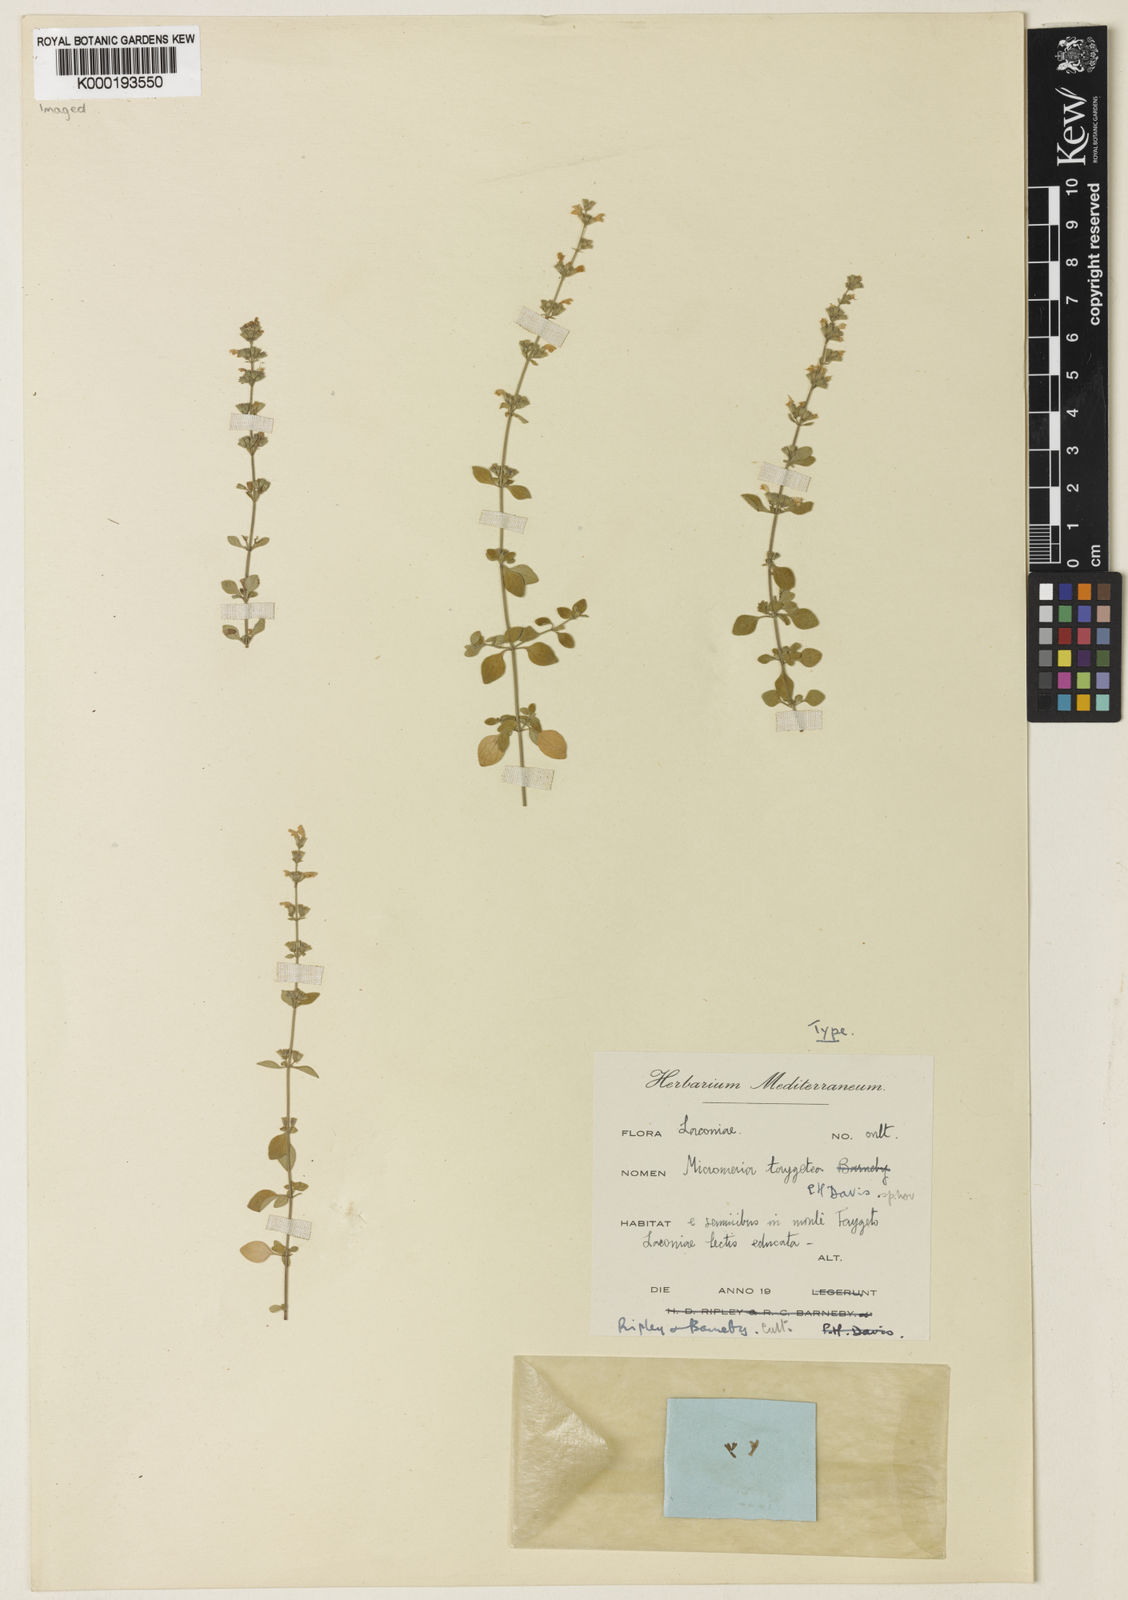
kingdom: Plantae
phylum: Tracheophyta
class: Magnoliopsida
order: Lamiales
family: Lamiaceae
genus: Clinopodium
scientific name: Clinopodium taygeteum
